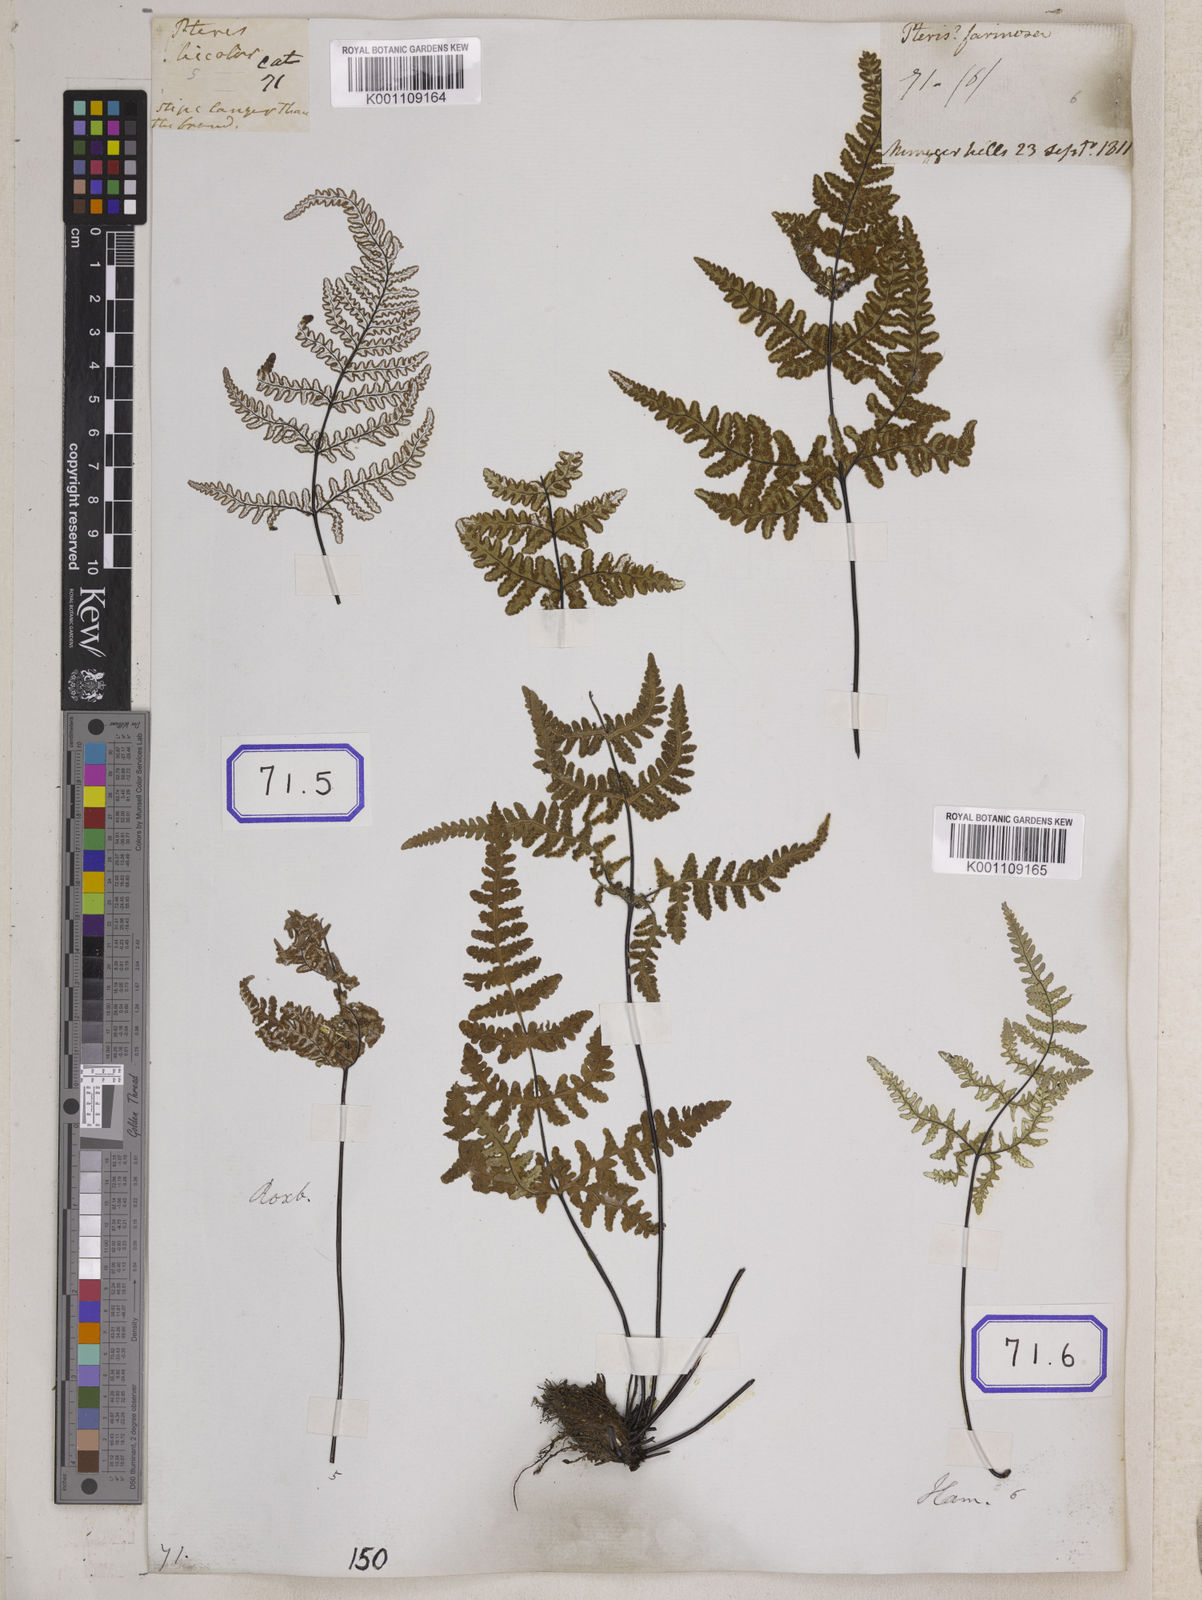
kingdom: Plantae
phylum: Tracheophyta
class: Polypodiopsida
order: Polypodiales
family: Pteridaceae
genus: Argyrochosma
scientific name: Argyrochosma dealbata
